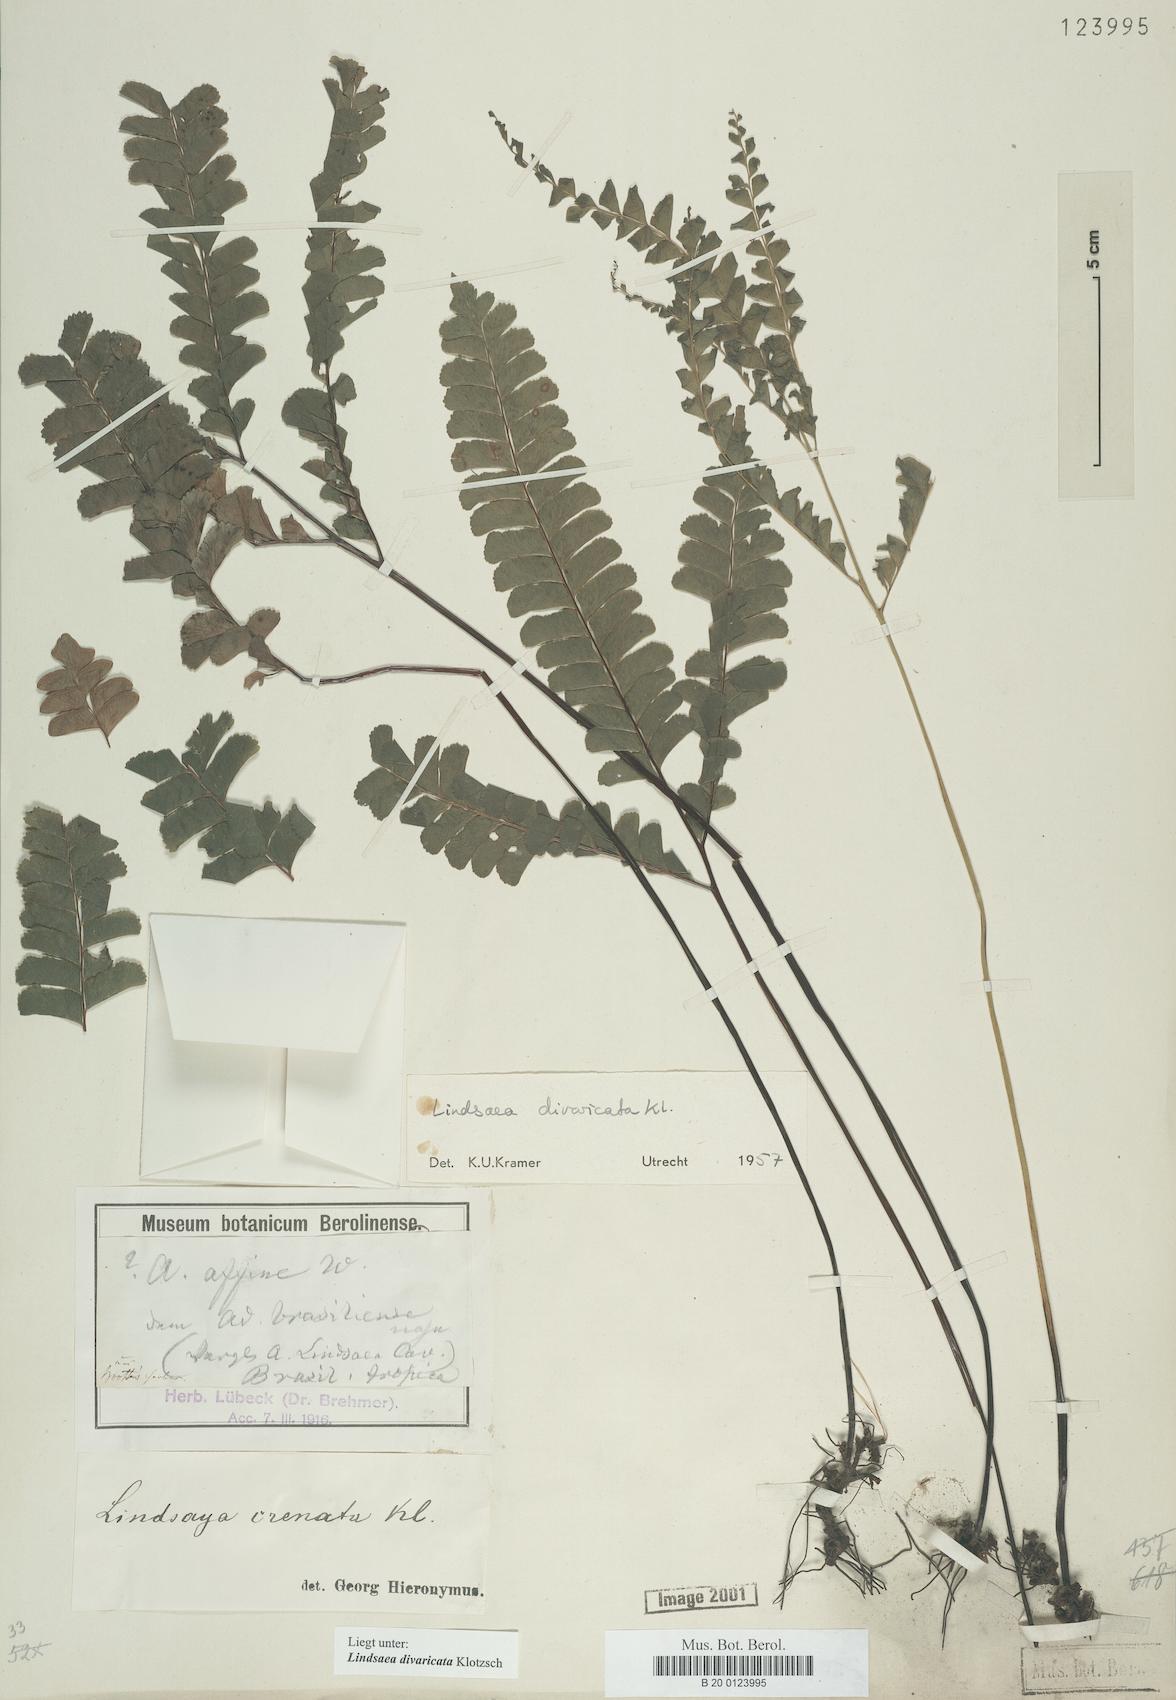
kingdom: Plantae
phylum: Tracheophyta
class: Polypodiopsida
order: Polypodiales
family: Lindsaeaceae
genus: Lindsaea
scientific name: Lindsaea divaricata
